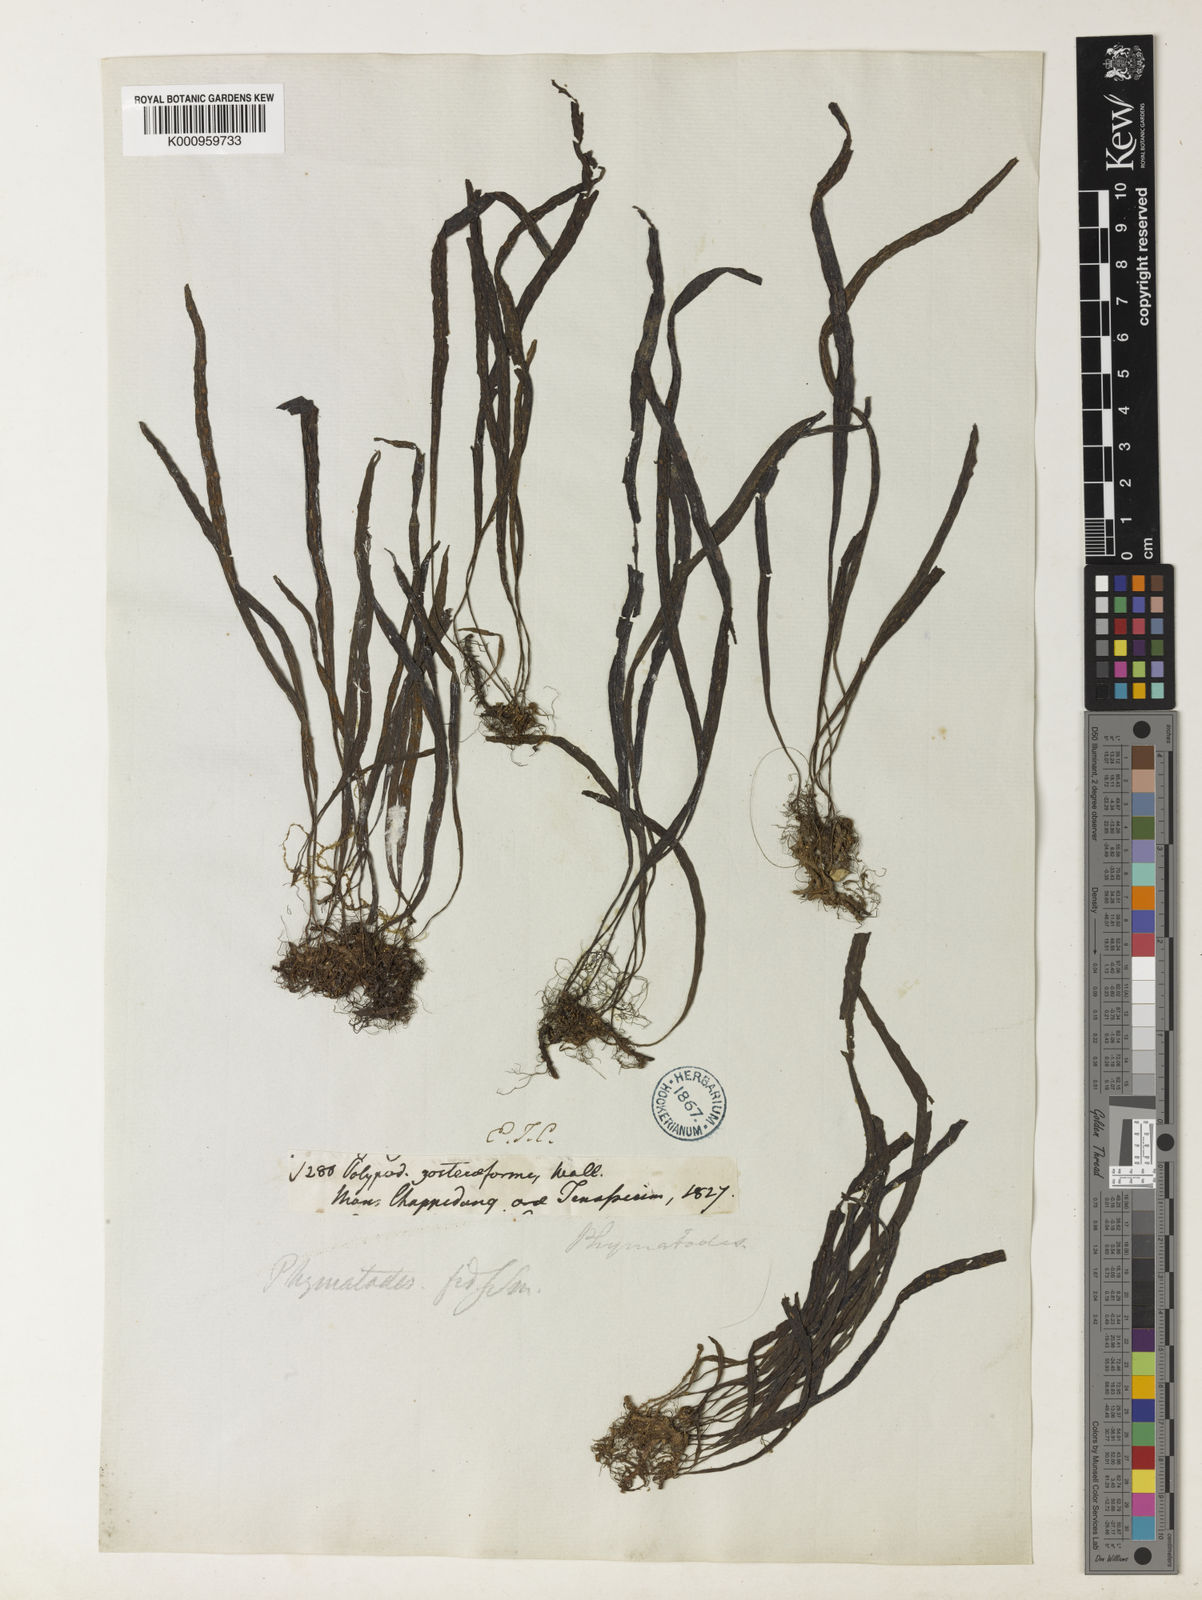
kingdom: Plantae
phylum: Tracheophyta
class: Polypodiopsida
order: Polypodiales
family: Polypodiaceae
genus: Leptochilus
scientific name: Leptochilus pteropus
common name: Java fern
